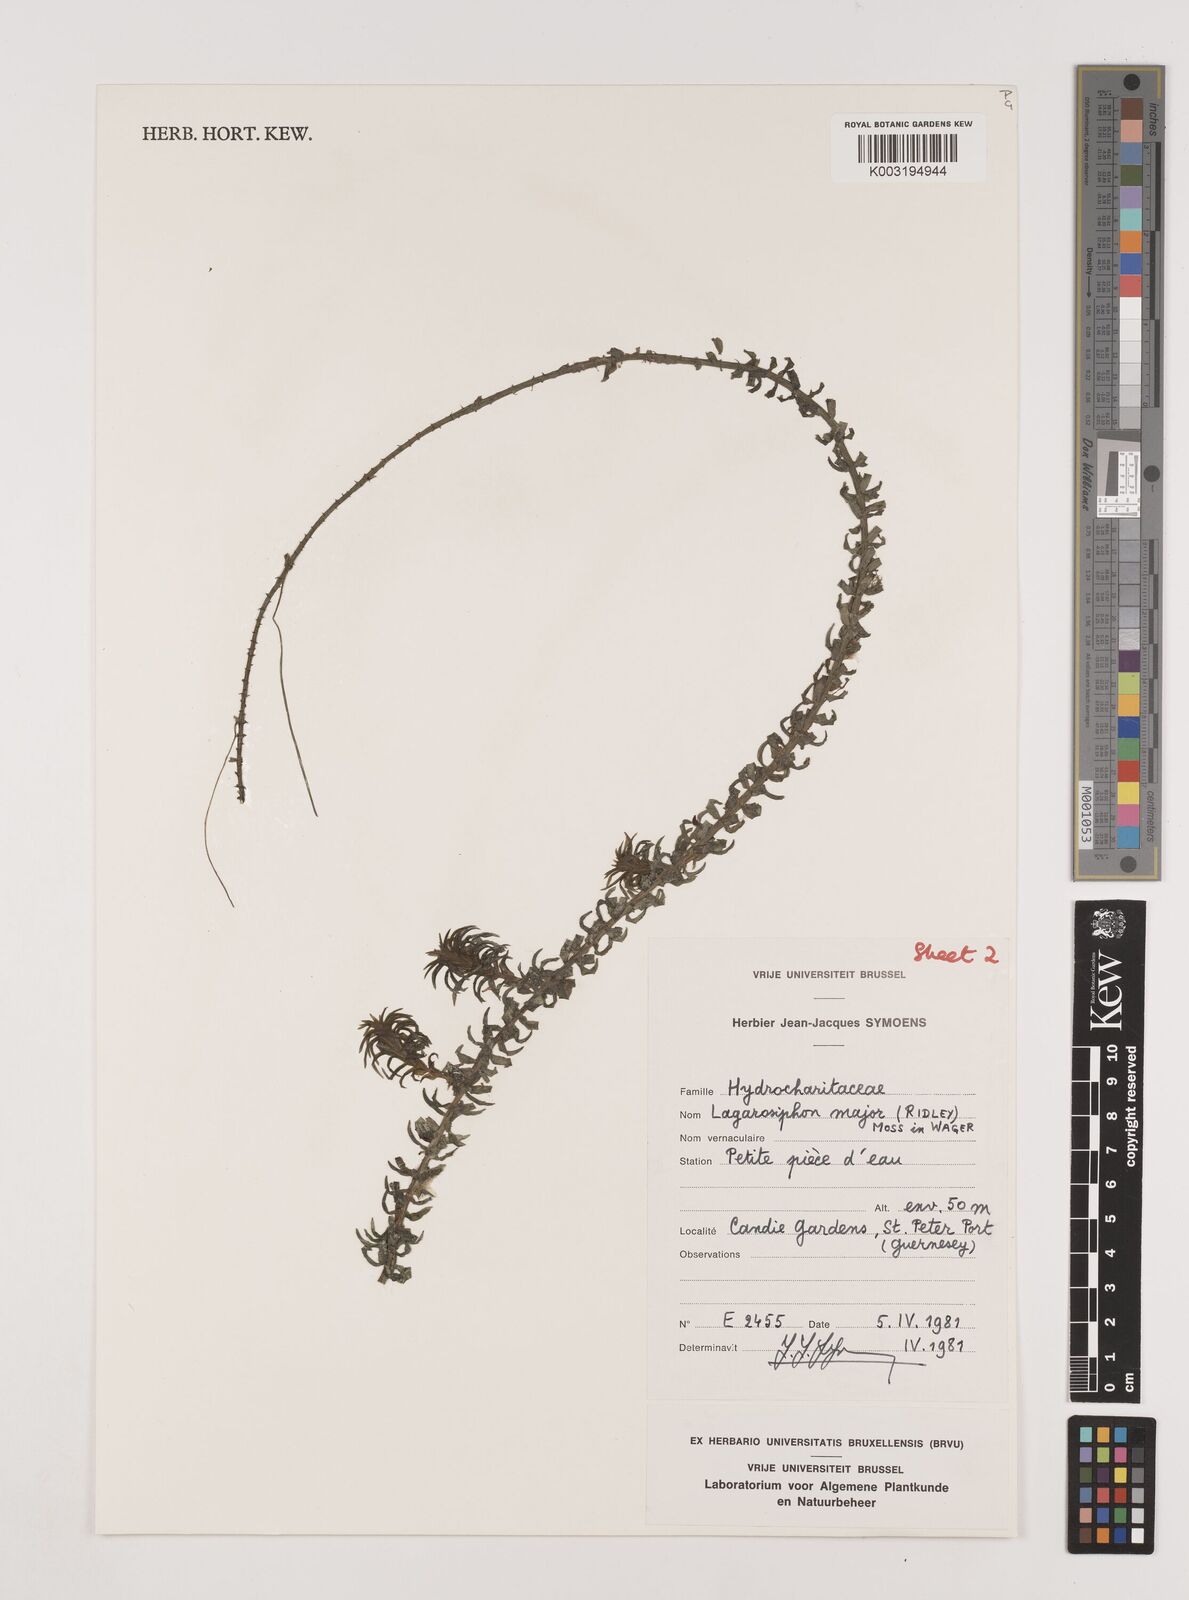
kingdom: Plantae
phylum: Tracheophyta
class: Liliopsida
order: Alismatales
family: Hydrocharitaceae
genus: Lagarosiphon
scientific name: Lagarosiphon major
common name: Curly waterweed
